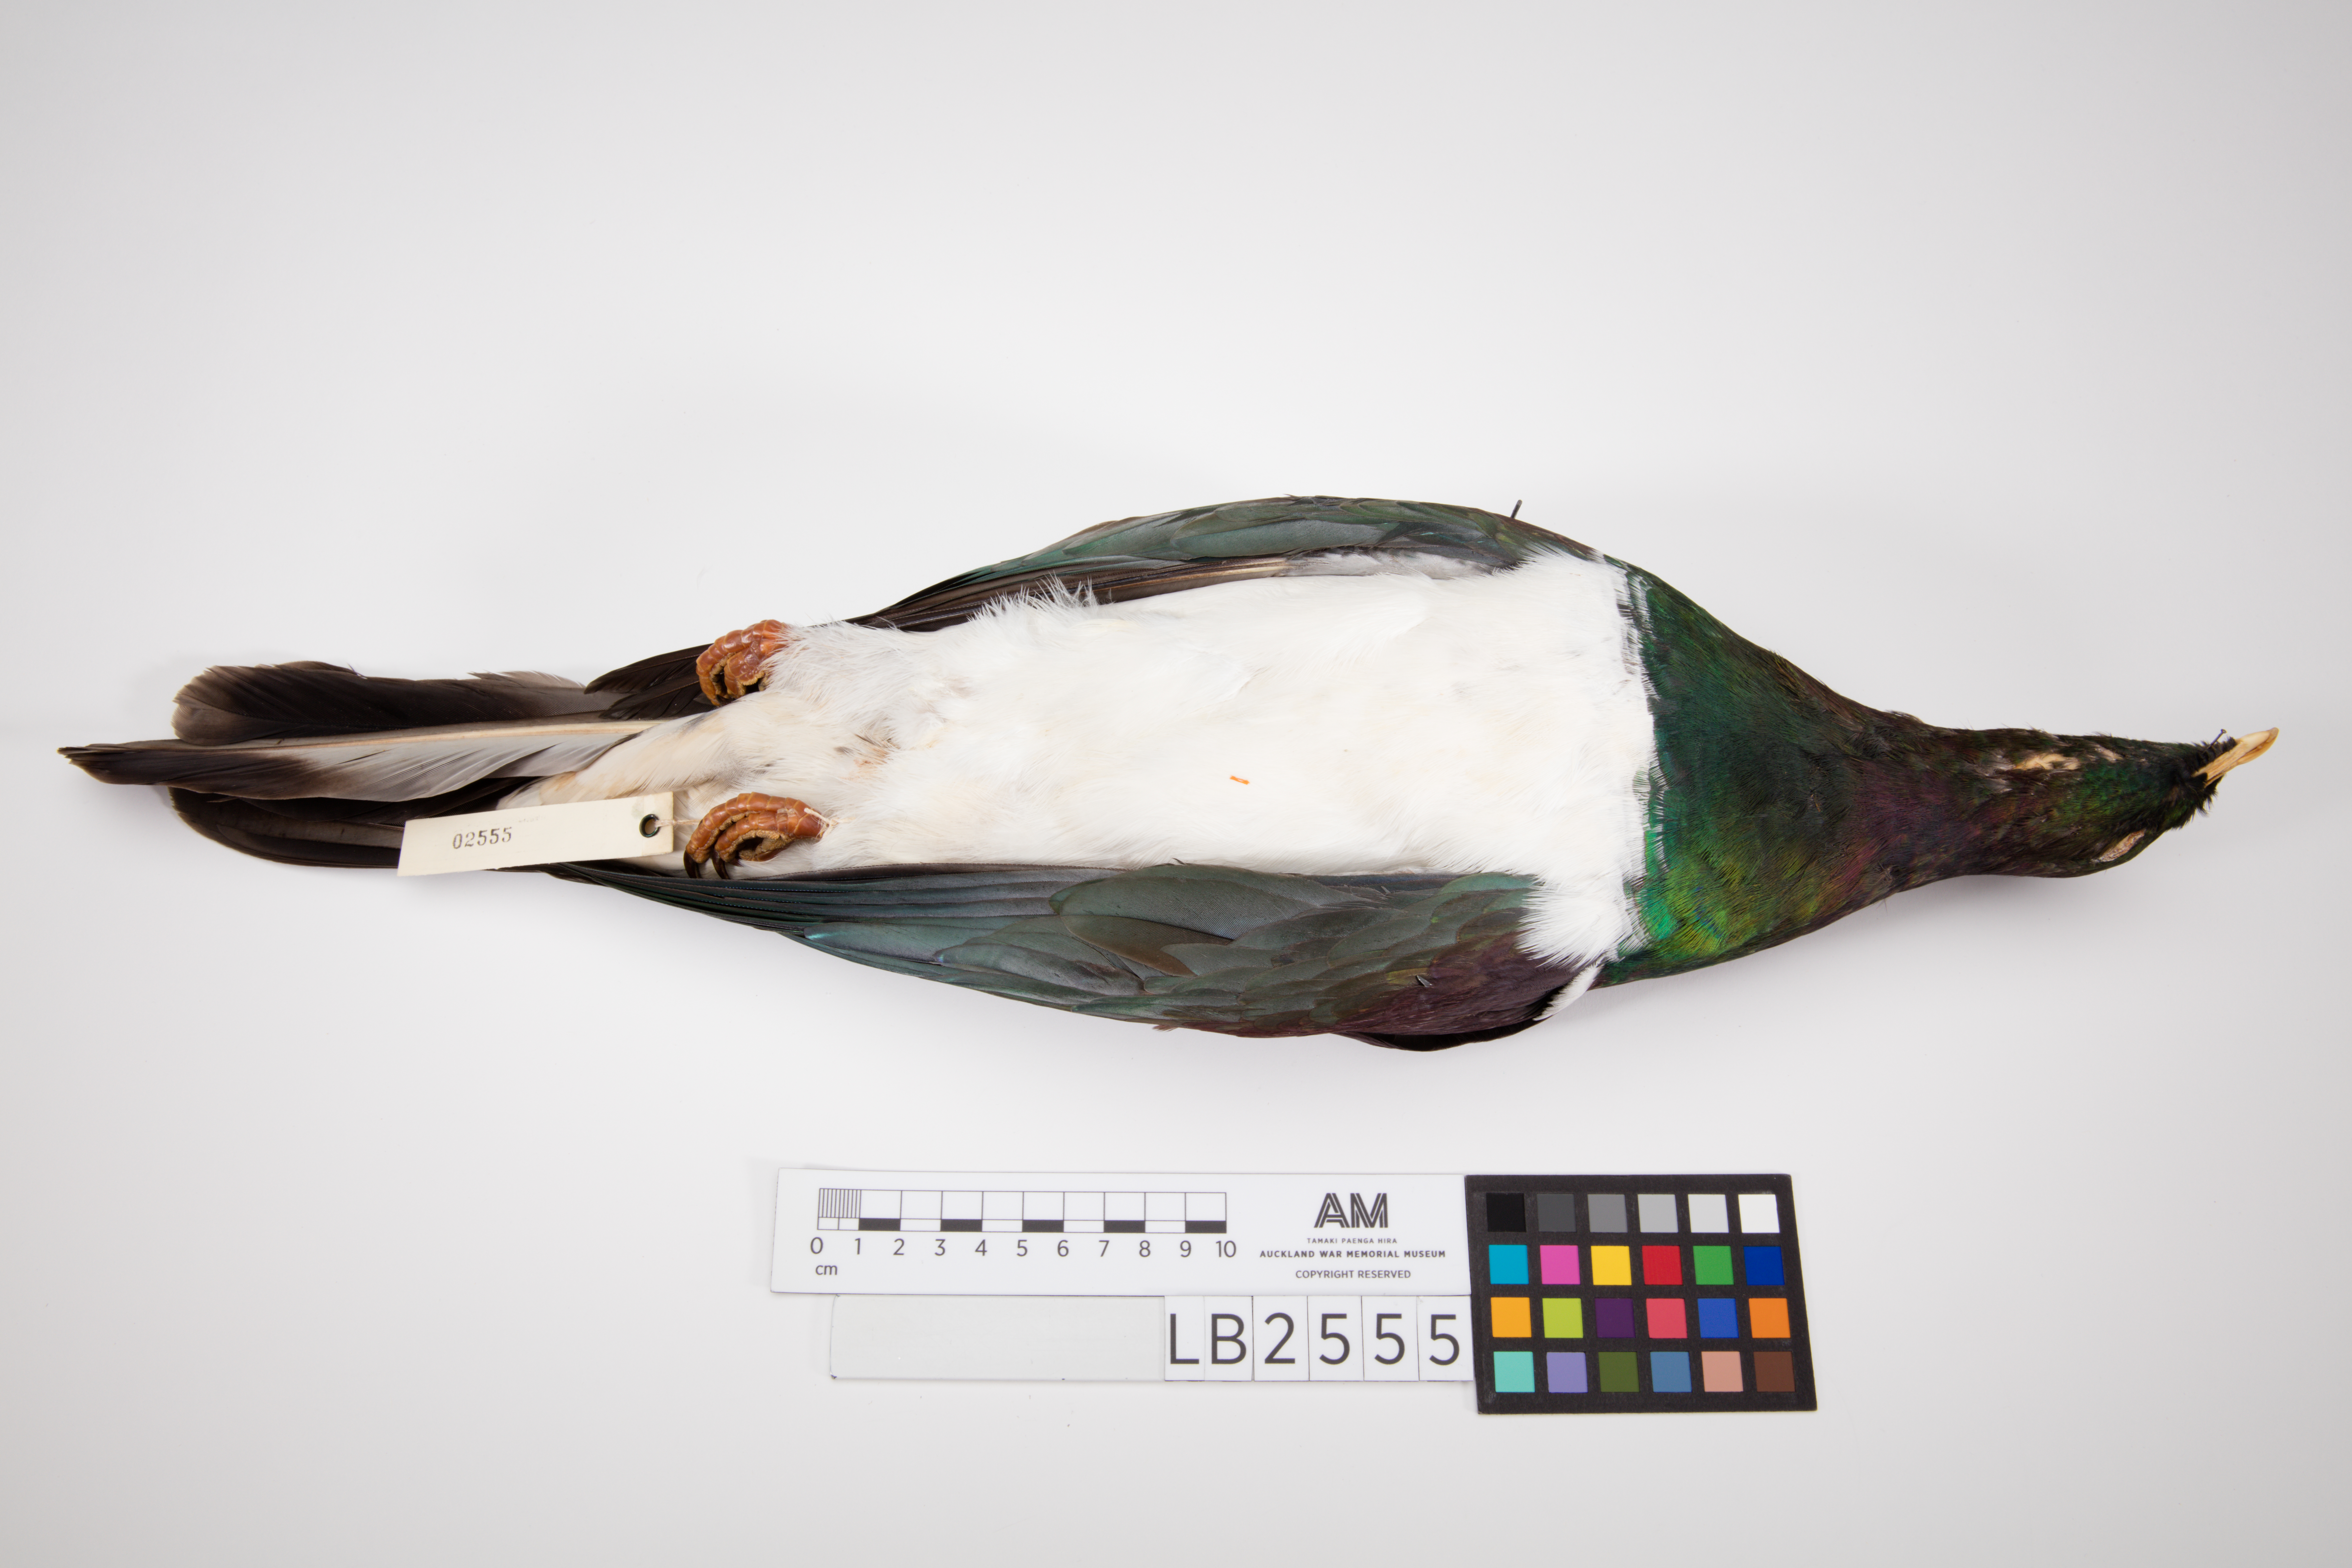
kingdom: Animalia
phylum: Chordata
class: Aves
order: Columbiformes
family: Columbidae
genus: Hemiphaga
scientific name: Hemiphaga novaeseelandiae
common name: New zealand pigeon
